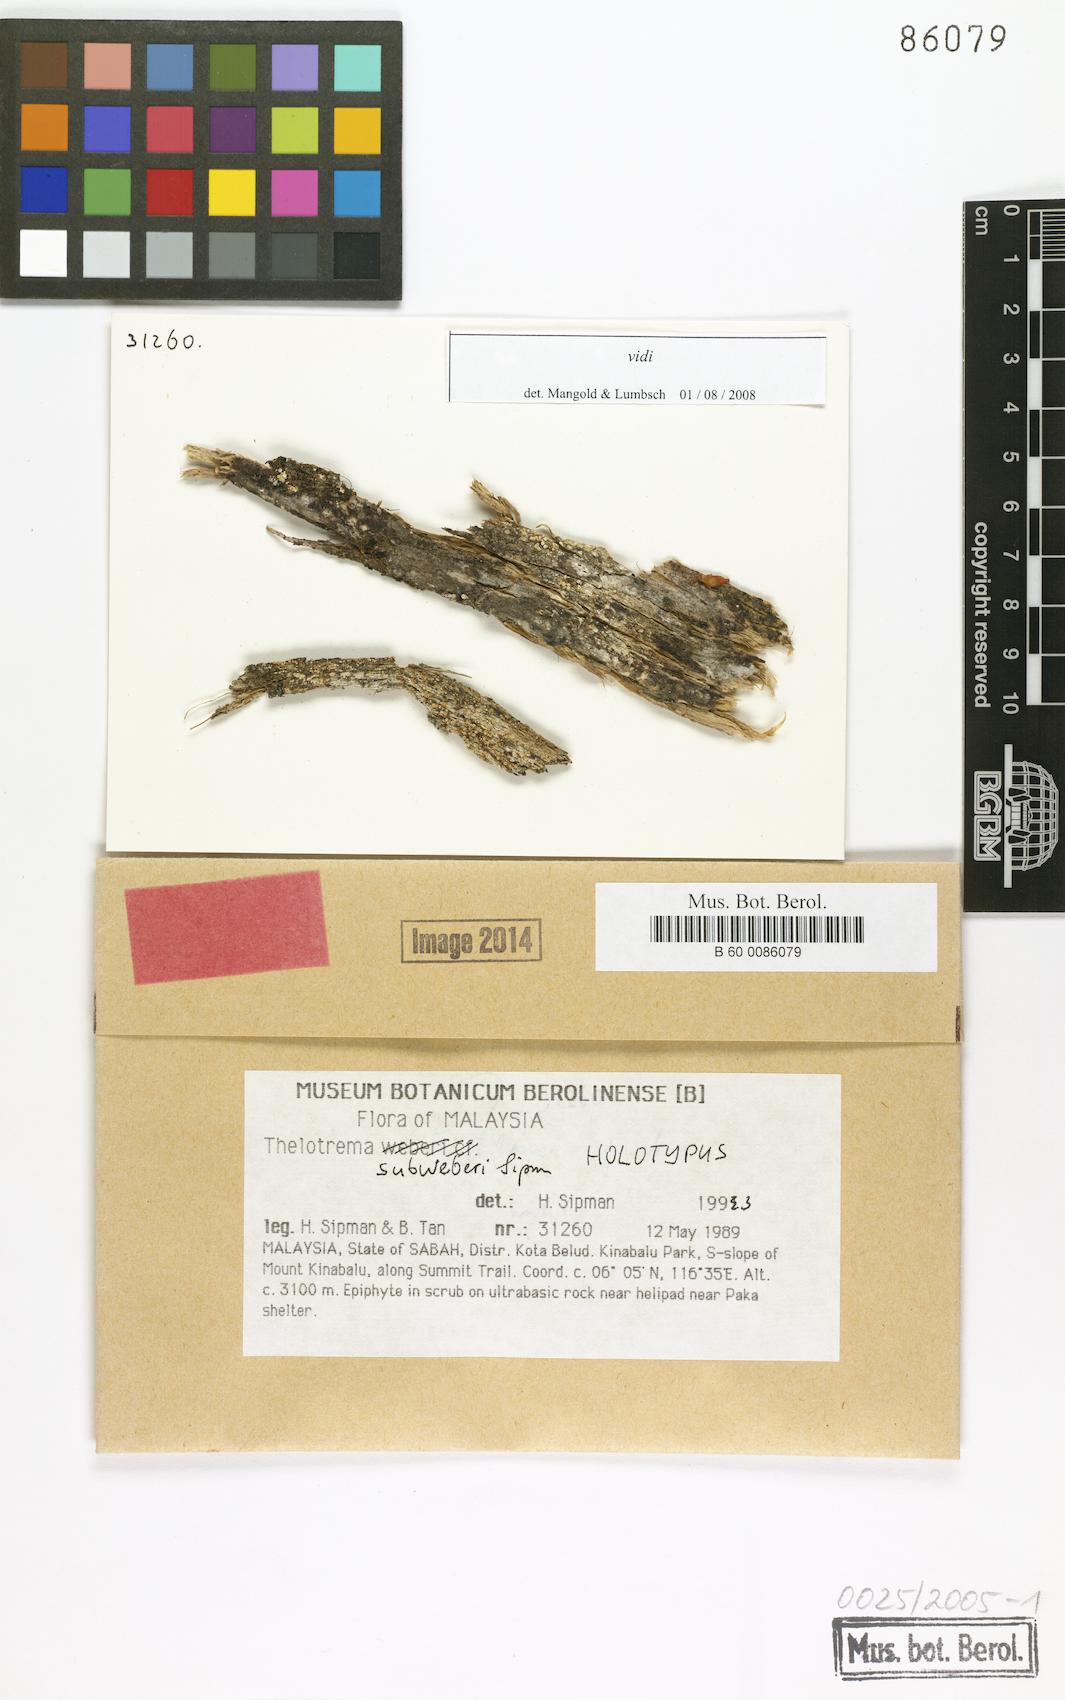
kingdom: Fungi
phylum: Ascomycota
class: Lecanoromycetes
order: Ostropales
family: Graphidaceae
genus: Thelotrema
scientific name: Thelotrema subweberi
